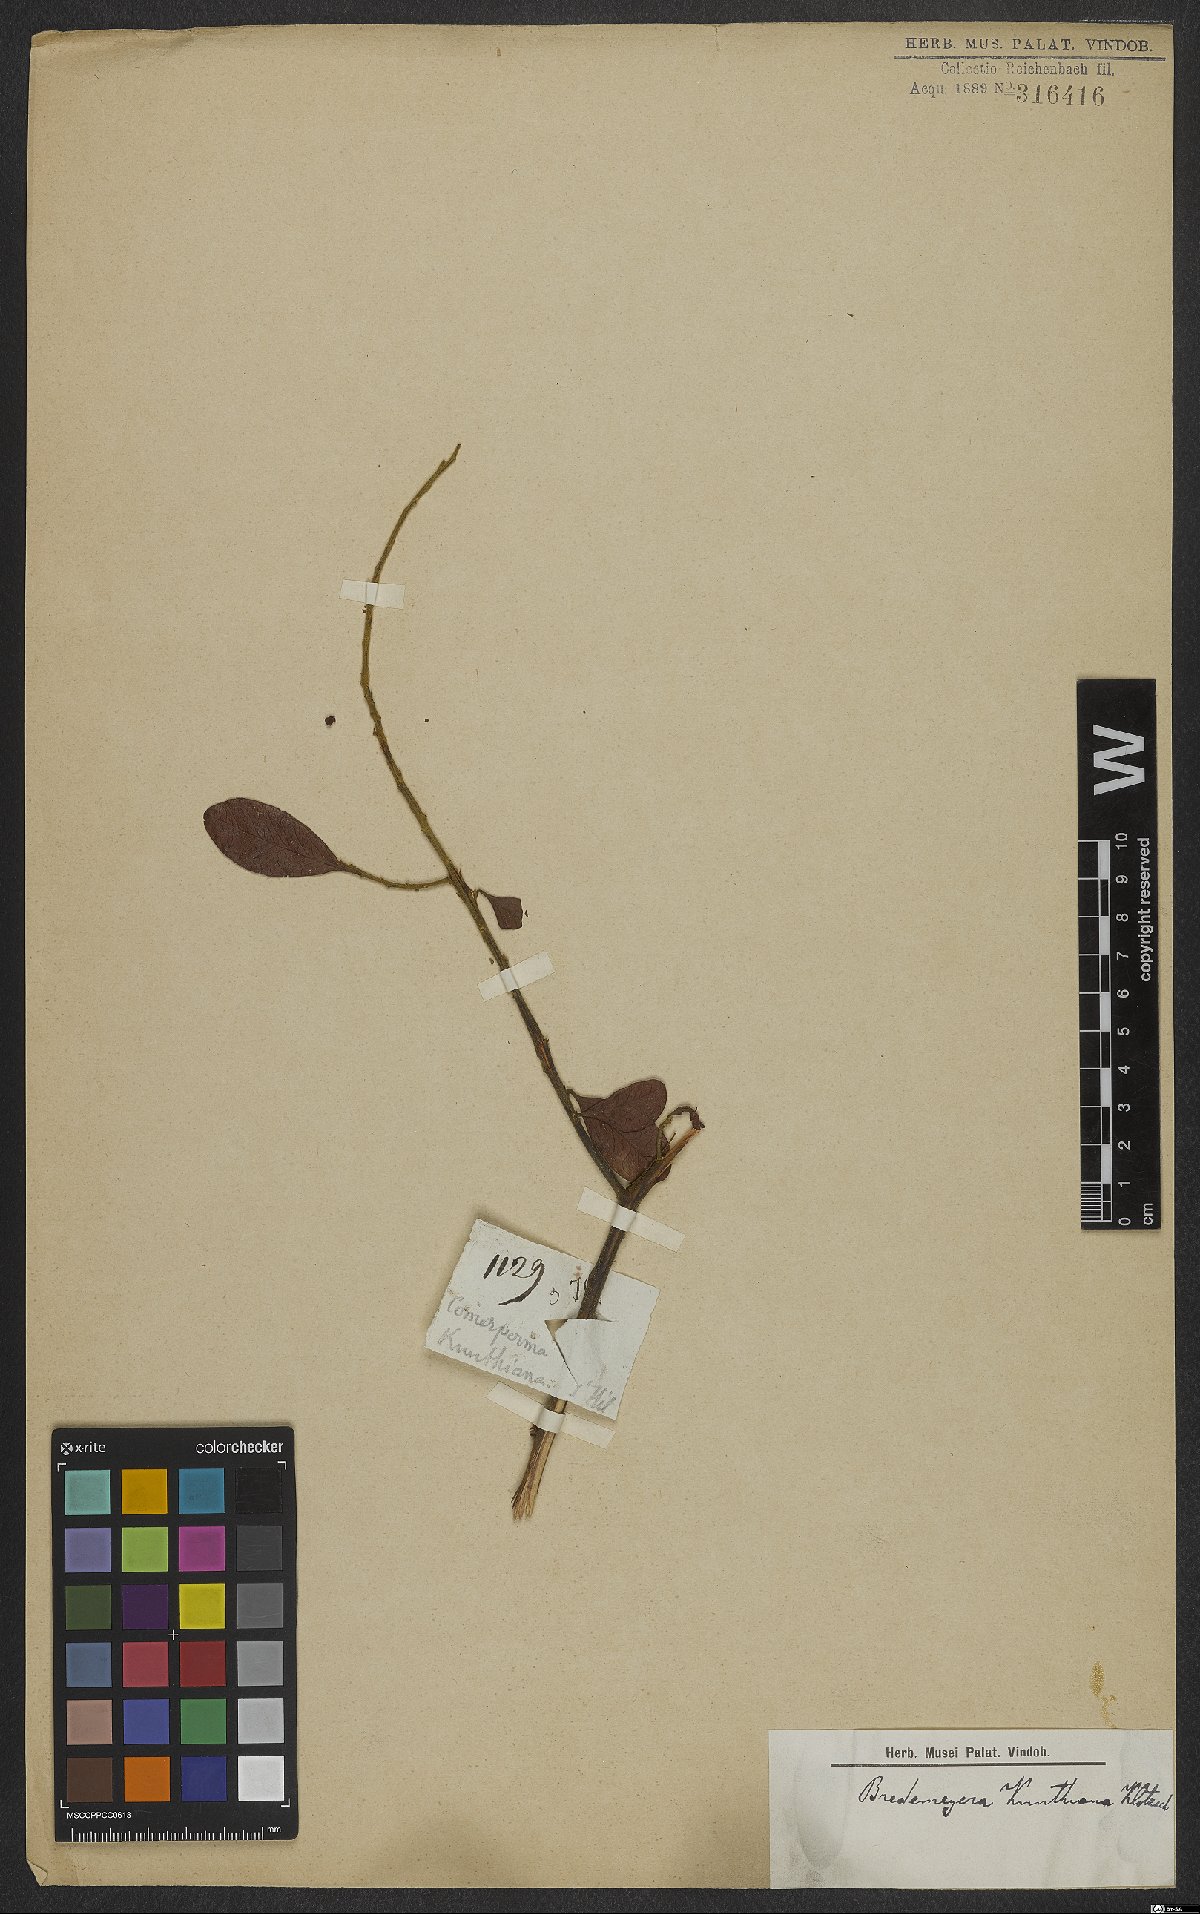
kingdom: Plantae
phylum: Tracheophyta
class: Magnoliopsida
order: Fabales
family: Polygalaceae
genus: Bredemeyera
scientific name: Bredemeyera hebeclada
